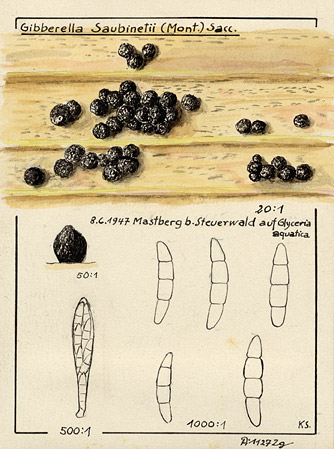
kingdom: Fungi
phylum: Ascomycota
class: Sordariomycetes
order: Hypocreales
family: Nectriaceae
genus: Fusarium
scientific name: Fusarium roseum
